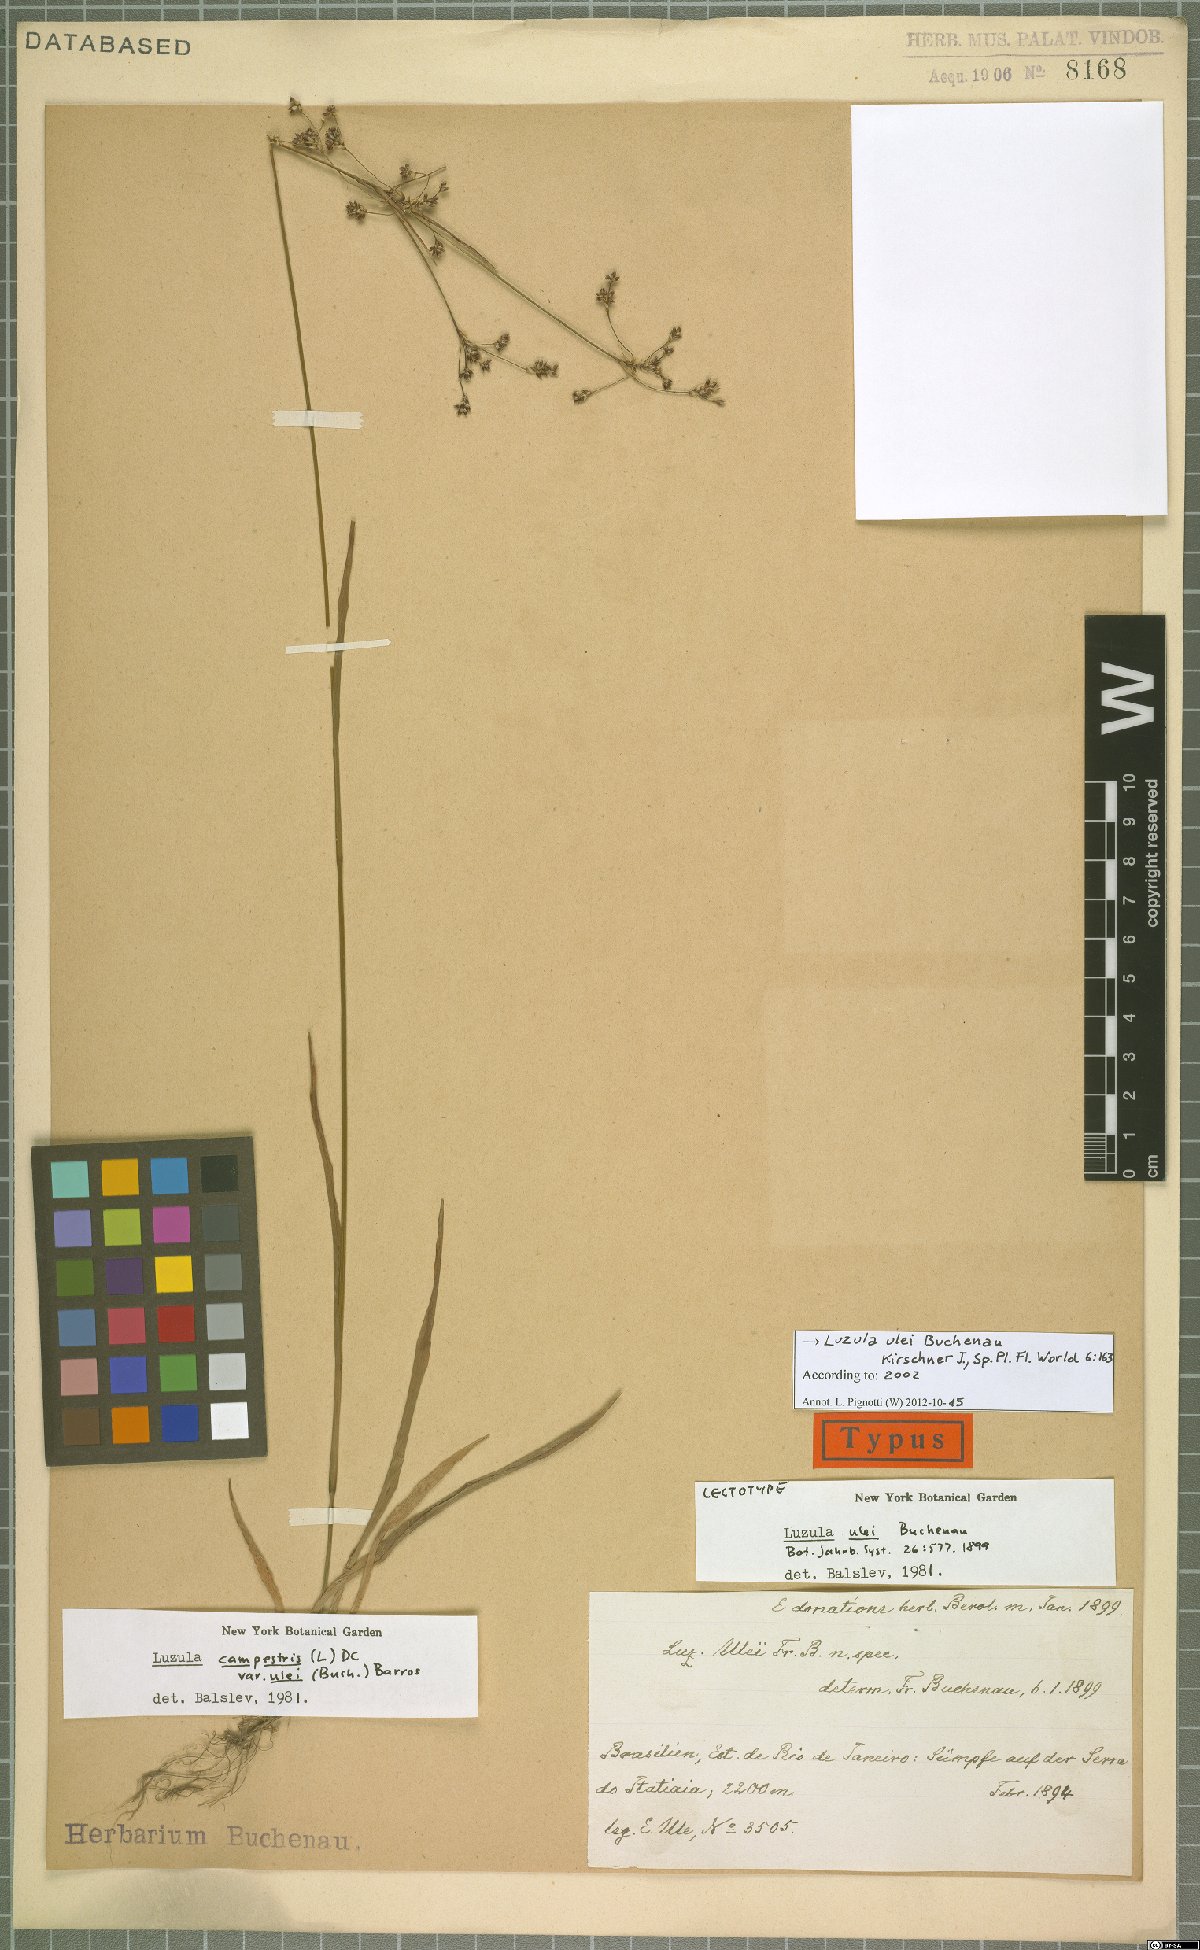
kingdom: Plantae
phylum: Tracheophyta
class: Liliopsida
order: Poales
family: Juncaceae
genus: Luzula
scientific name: Luzula ulei
